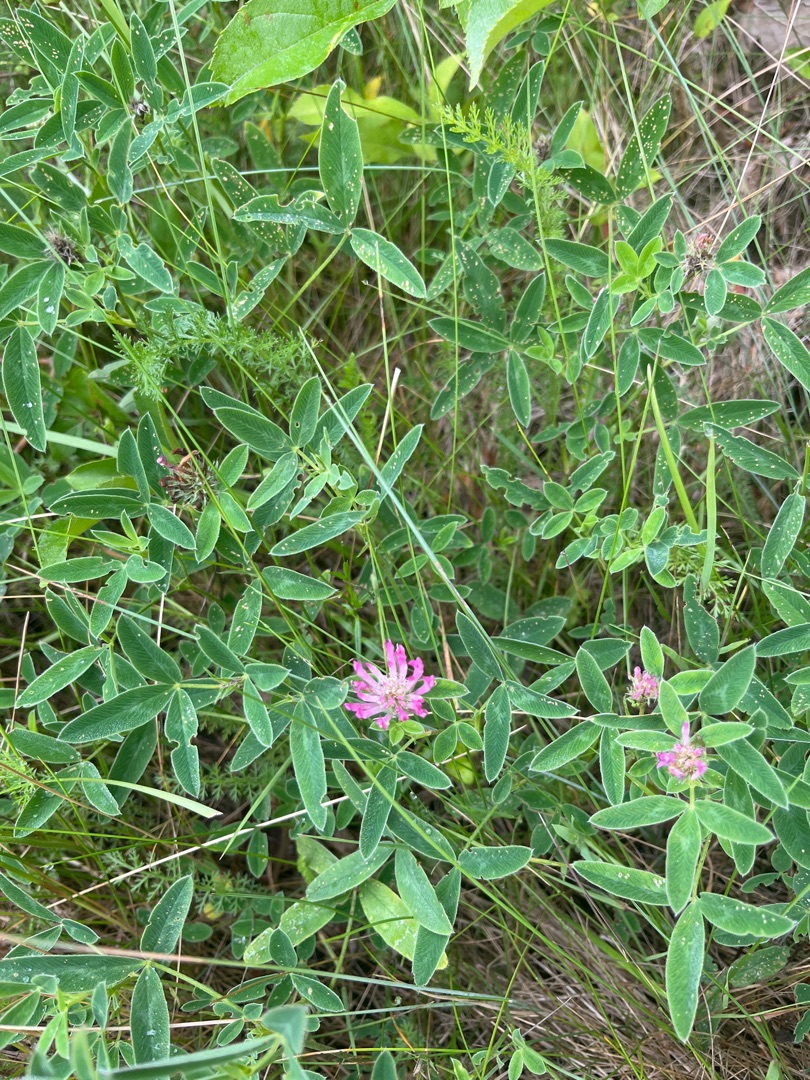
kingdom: Plantae
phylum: Tracheophyta
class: Magnoliopsida
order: Fabales
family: Fabaceae
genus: Trifolium
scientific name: Trifolium medium
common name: Bugtet kløver
